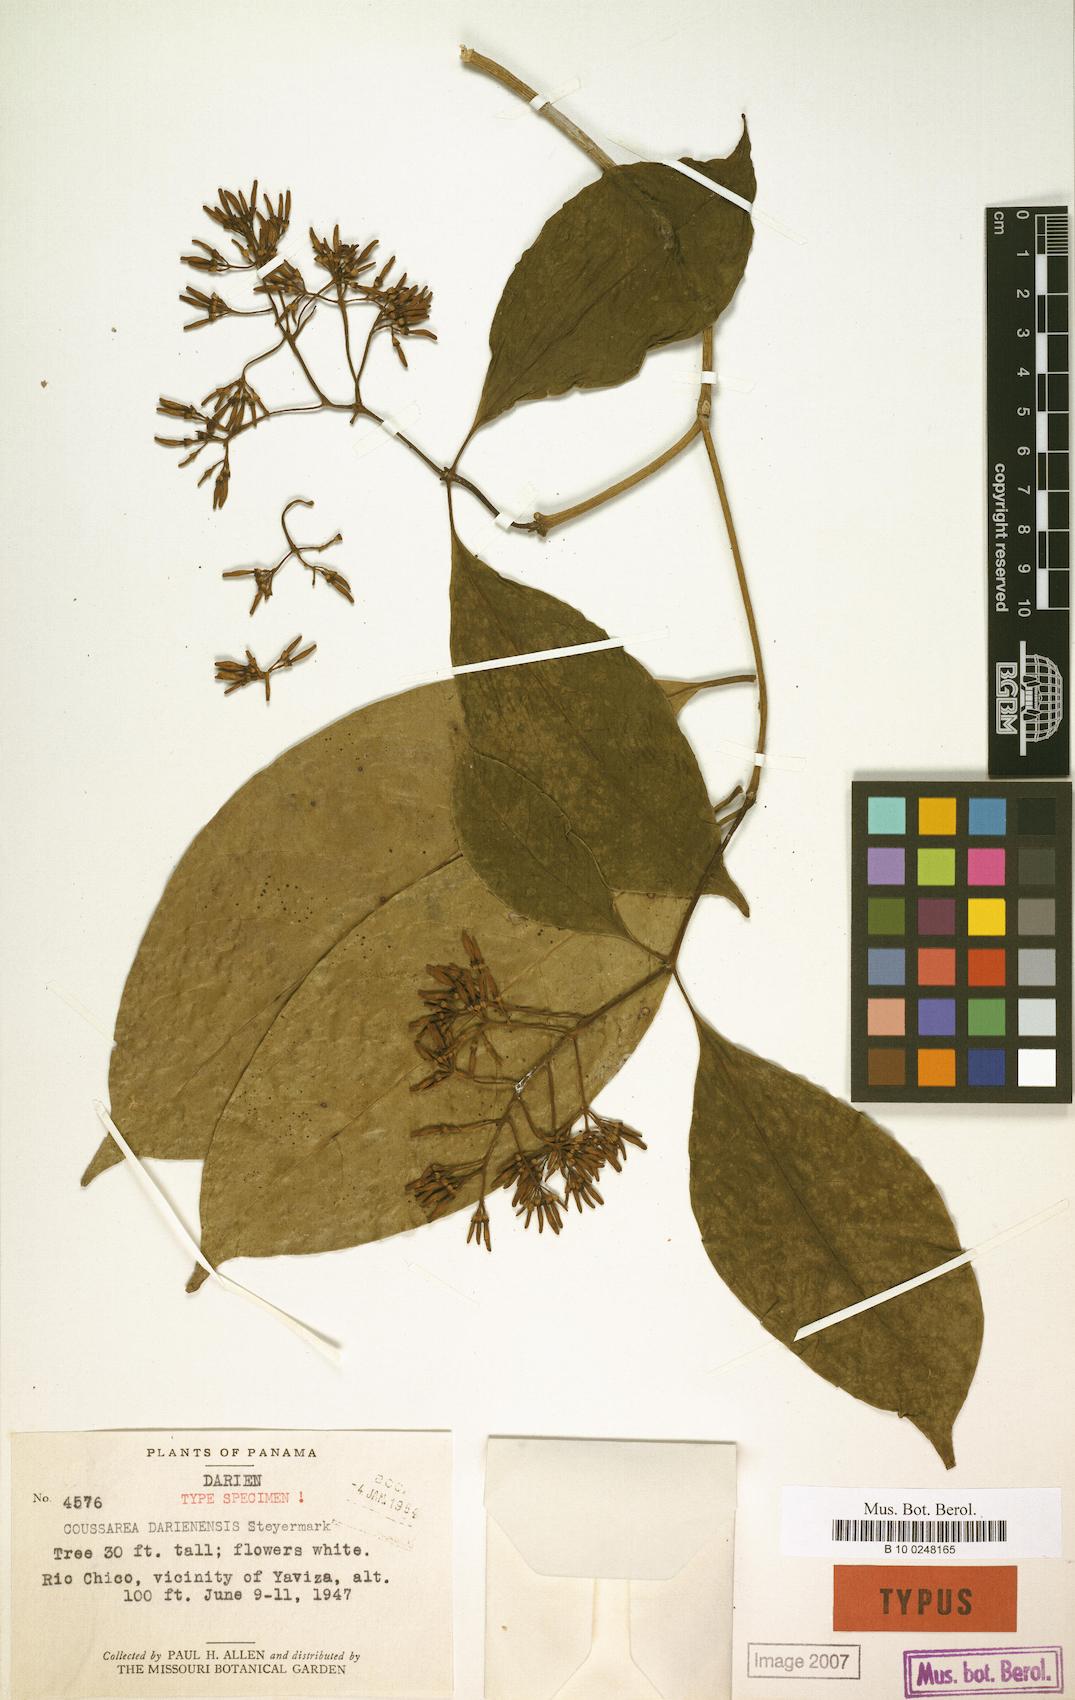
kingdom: Plantae
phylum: Tracheophyta
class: Magnoliopsida
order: Gentianales
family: Rubiaceae
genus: Coussarea
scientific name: Coussarea paniculata
